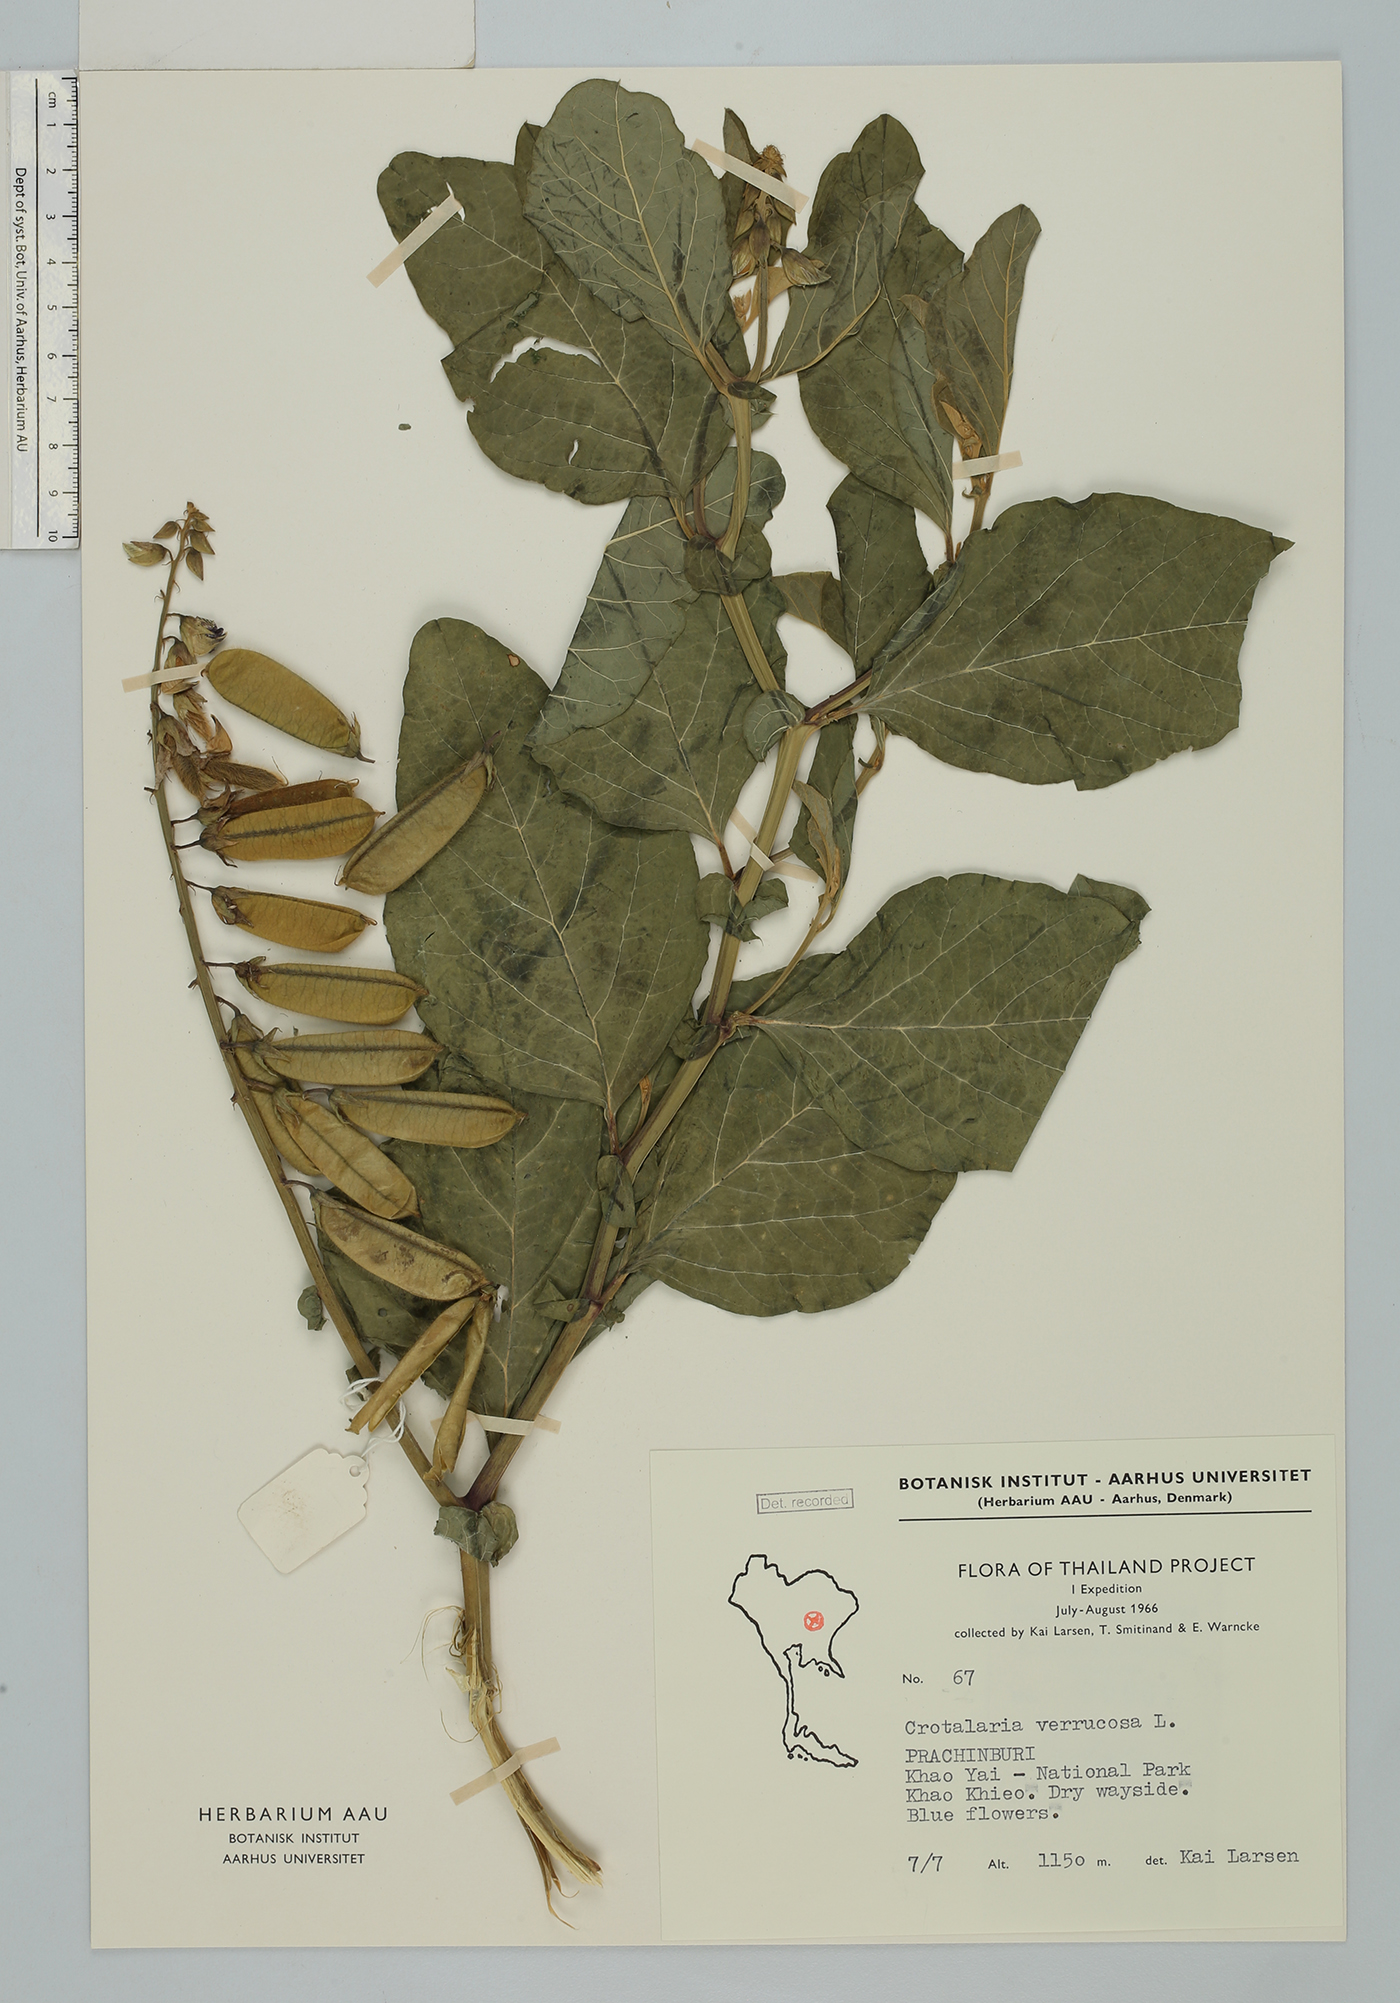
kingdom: Plantae
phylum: Tracheophyta
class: Magnoliopsida
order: Fabales
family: Fabaceae
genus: Crotalaria
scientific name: Crotalaria verrucosa
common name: Blue rattlesnake
